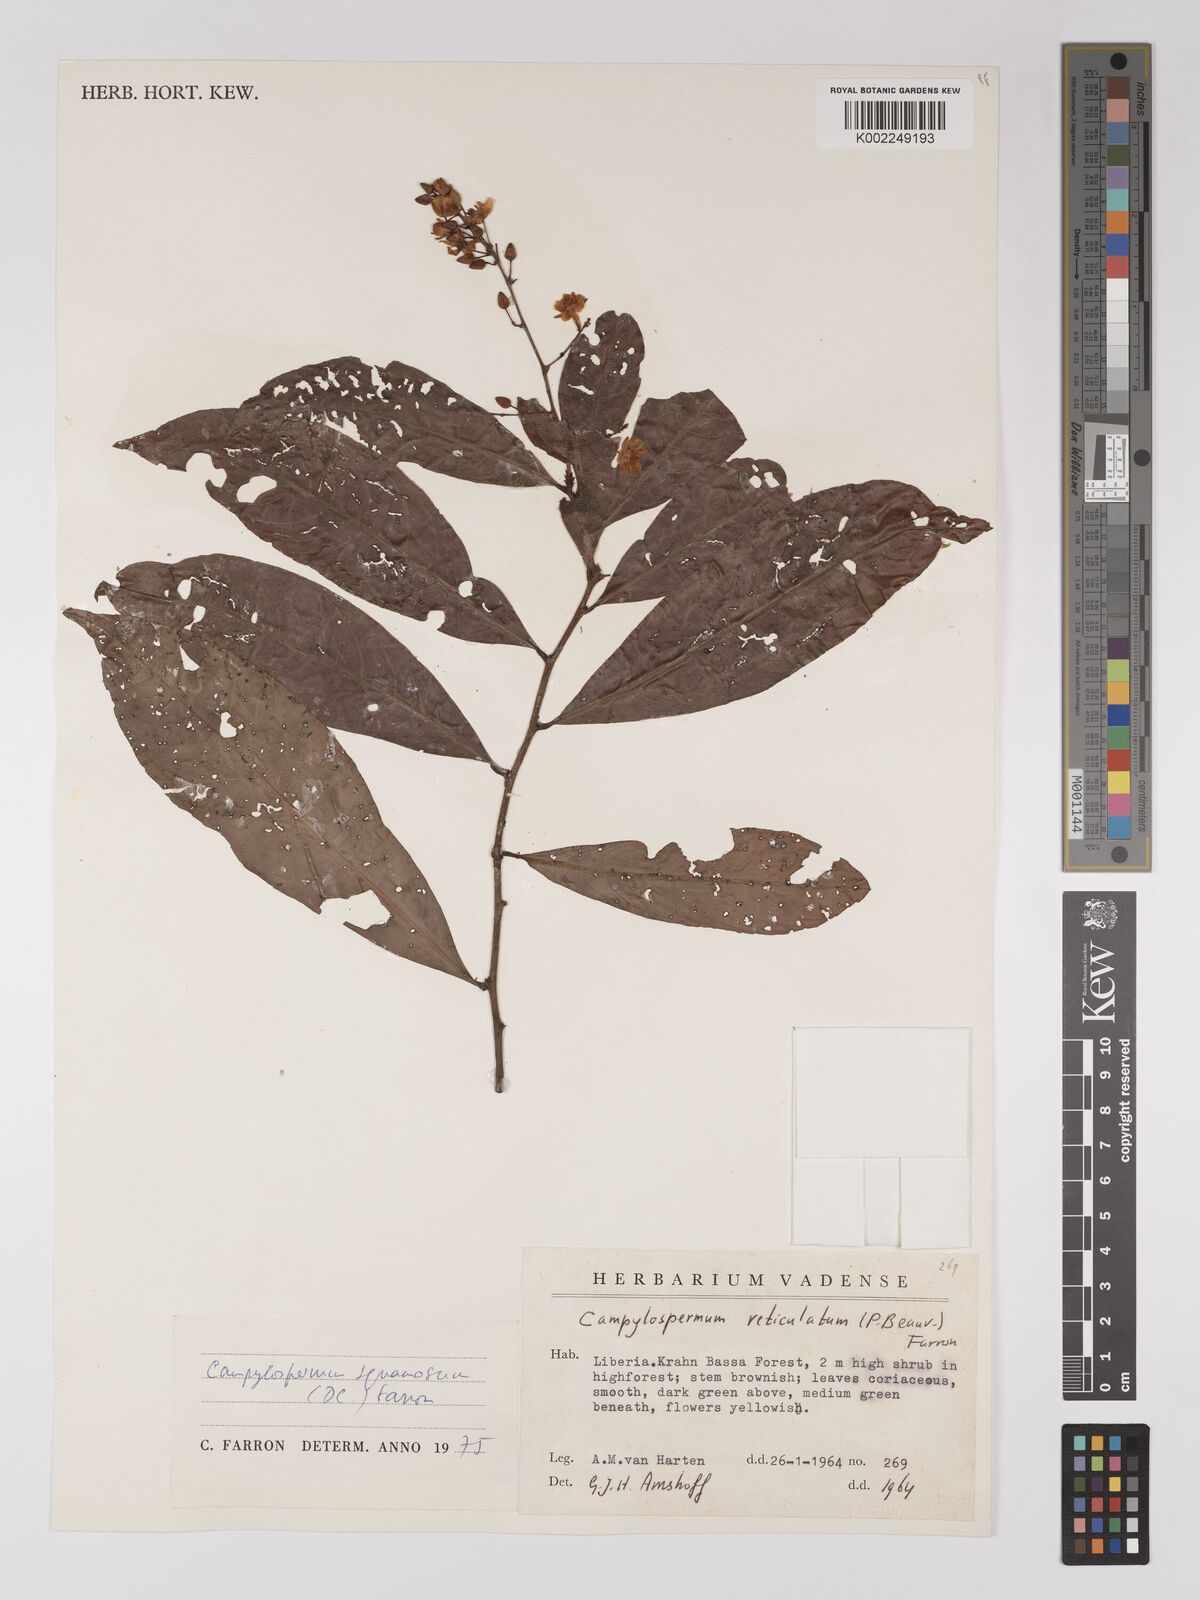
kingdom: Plantae
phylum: Tracheophyta
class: Magnoliopsida
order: Malpighiales
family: Ochnaceae
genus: Campylospermum
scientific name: Campylospermum squamosum
